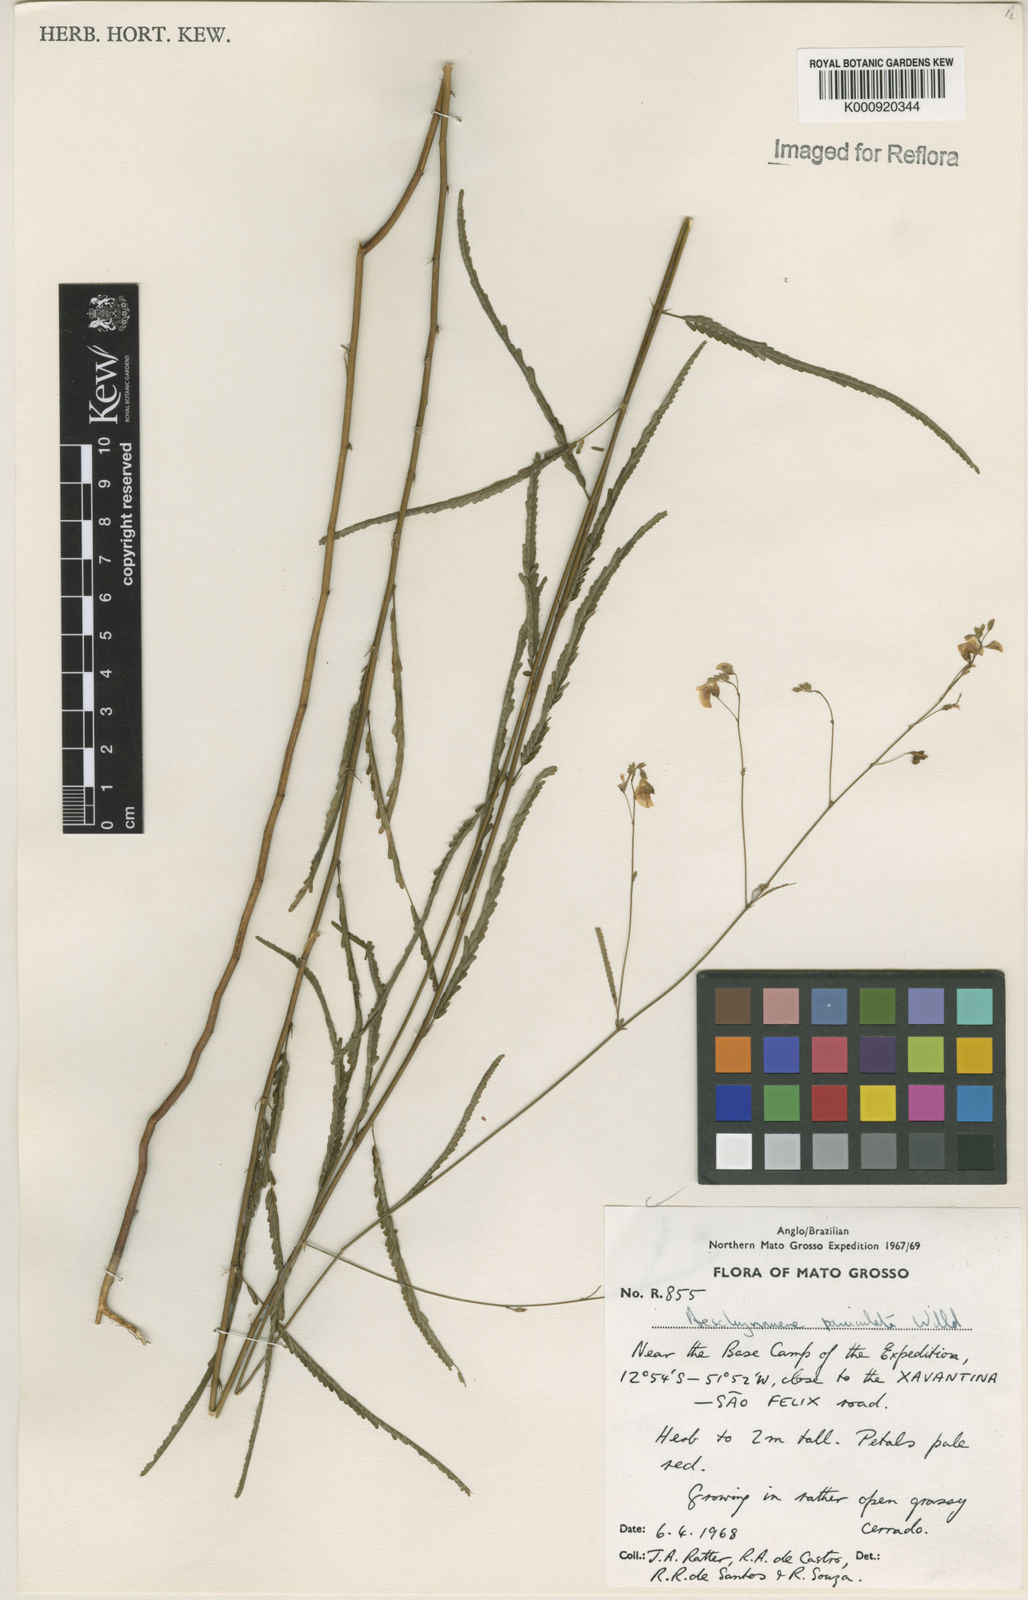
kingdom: Plantae
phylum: Tracheophyta
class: Magnoliopsida
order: Fabales
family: Fabaceae
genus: Ctenodon
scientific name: Ctenodon paniculatus
